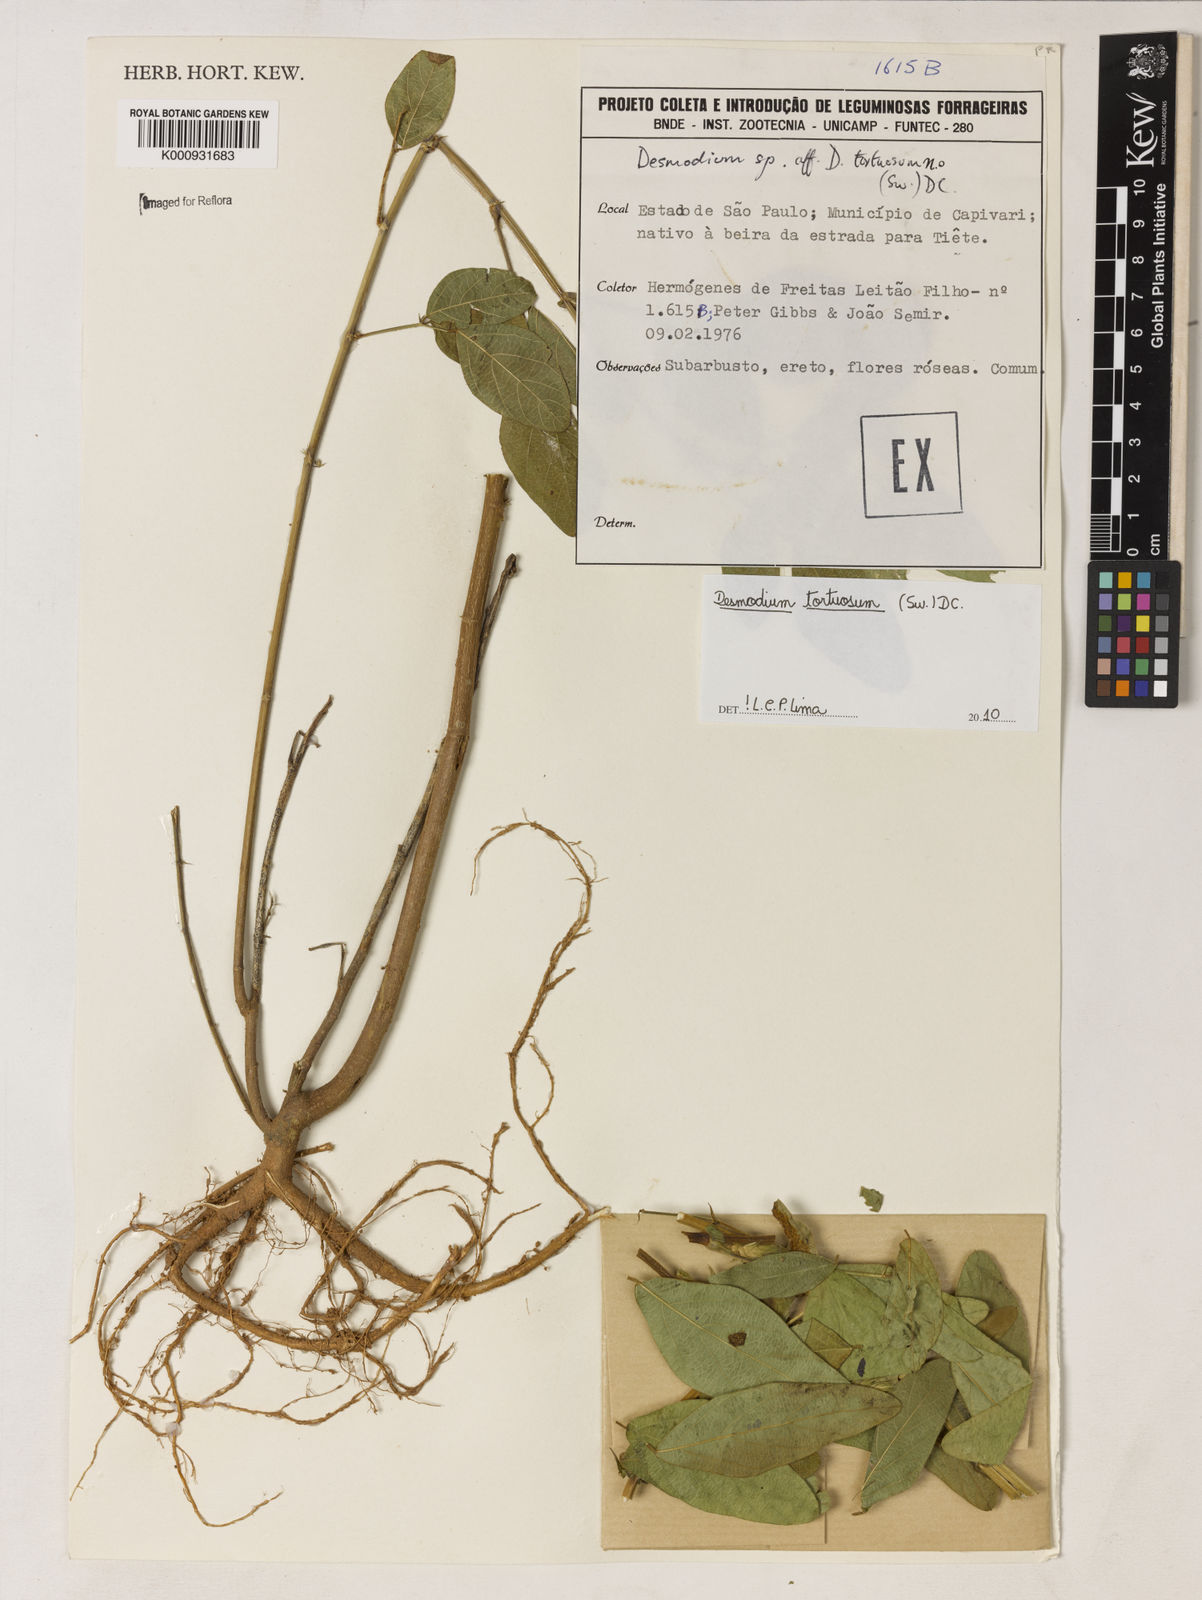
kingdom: Plantae
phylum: Tracheophyta
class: Magnoliopsida
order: Fabales
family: Fabaceae
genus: Desmodium
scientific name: Desmodium tortuosum
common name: Dixie ticktrefoil
